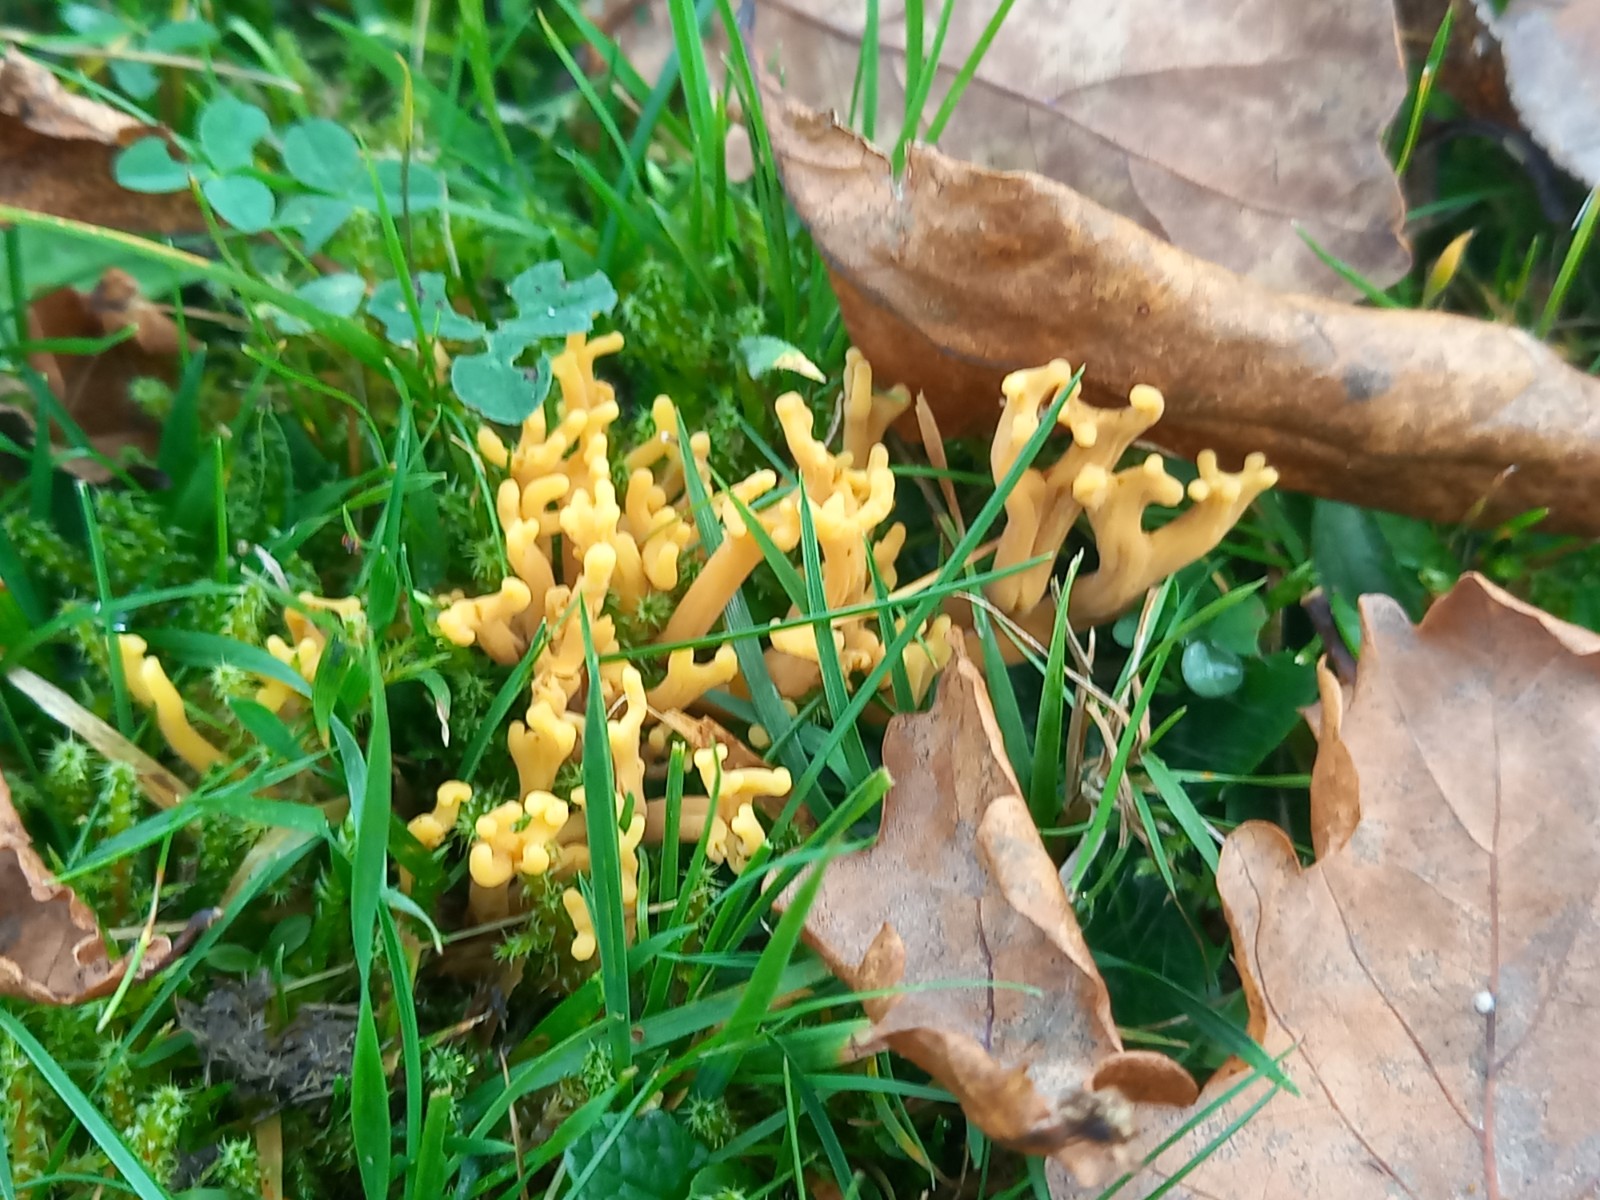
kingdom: Fungi
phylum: Basidiomycota
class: Agaricomycetes
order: Agaricales
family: Clavariaceae
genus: Clavulinopsis
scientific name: Clavulinopsis corniculata
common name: eng-køllesvamp
